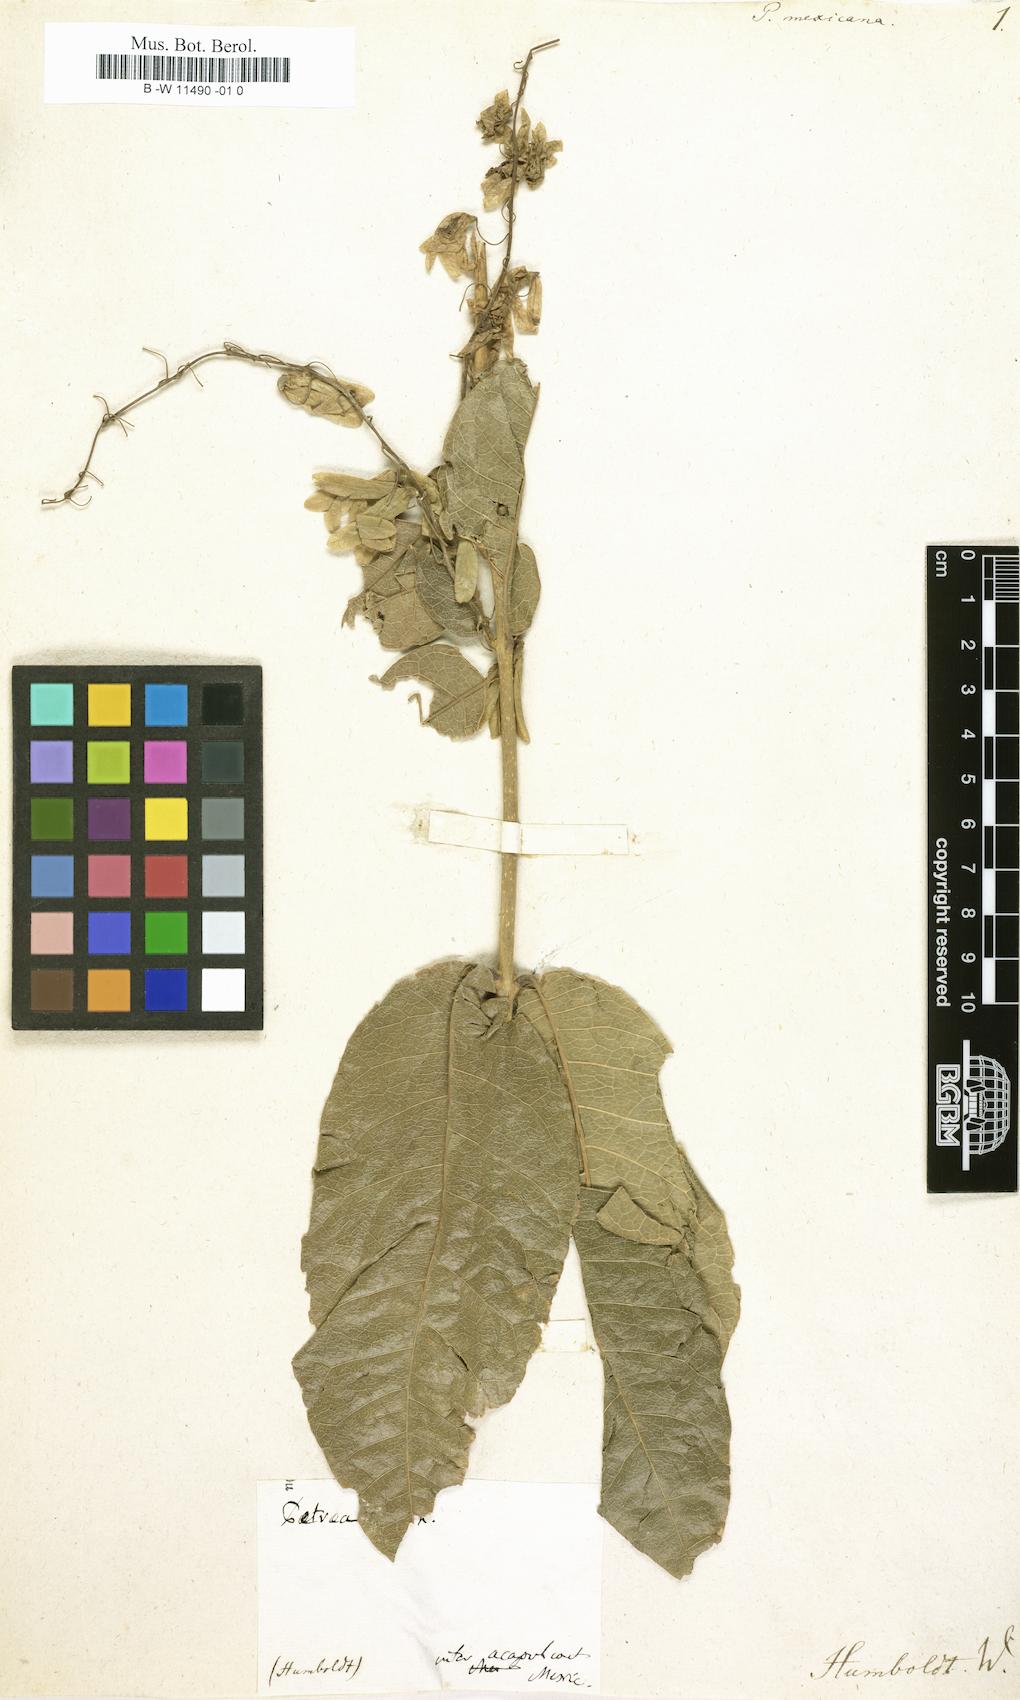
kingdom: Plantae
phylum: Tracheophyta
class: Magnoliopsida
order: Lamiales
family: Verbenaceae
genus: Petrea
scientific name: Petrea volubilis
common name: Queen's-wreath
